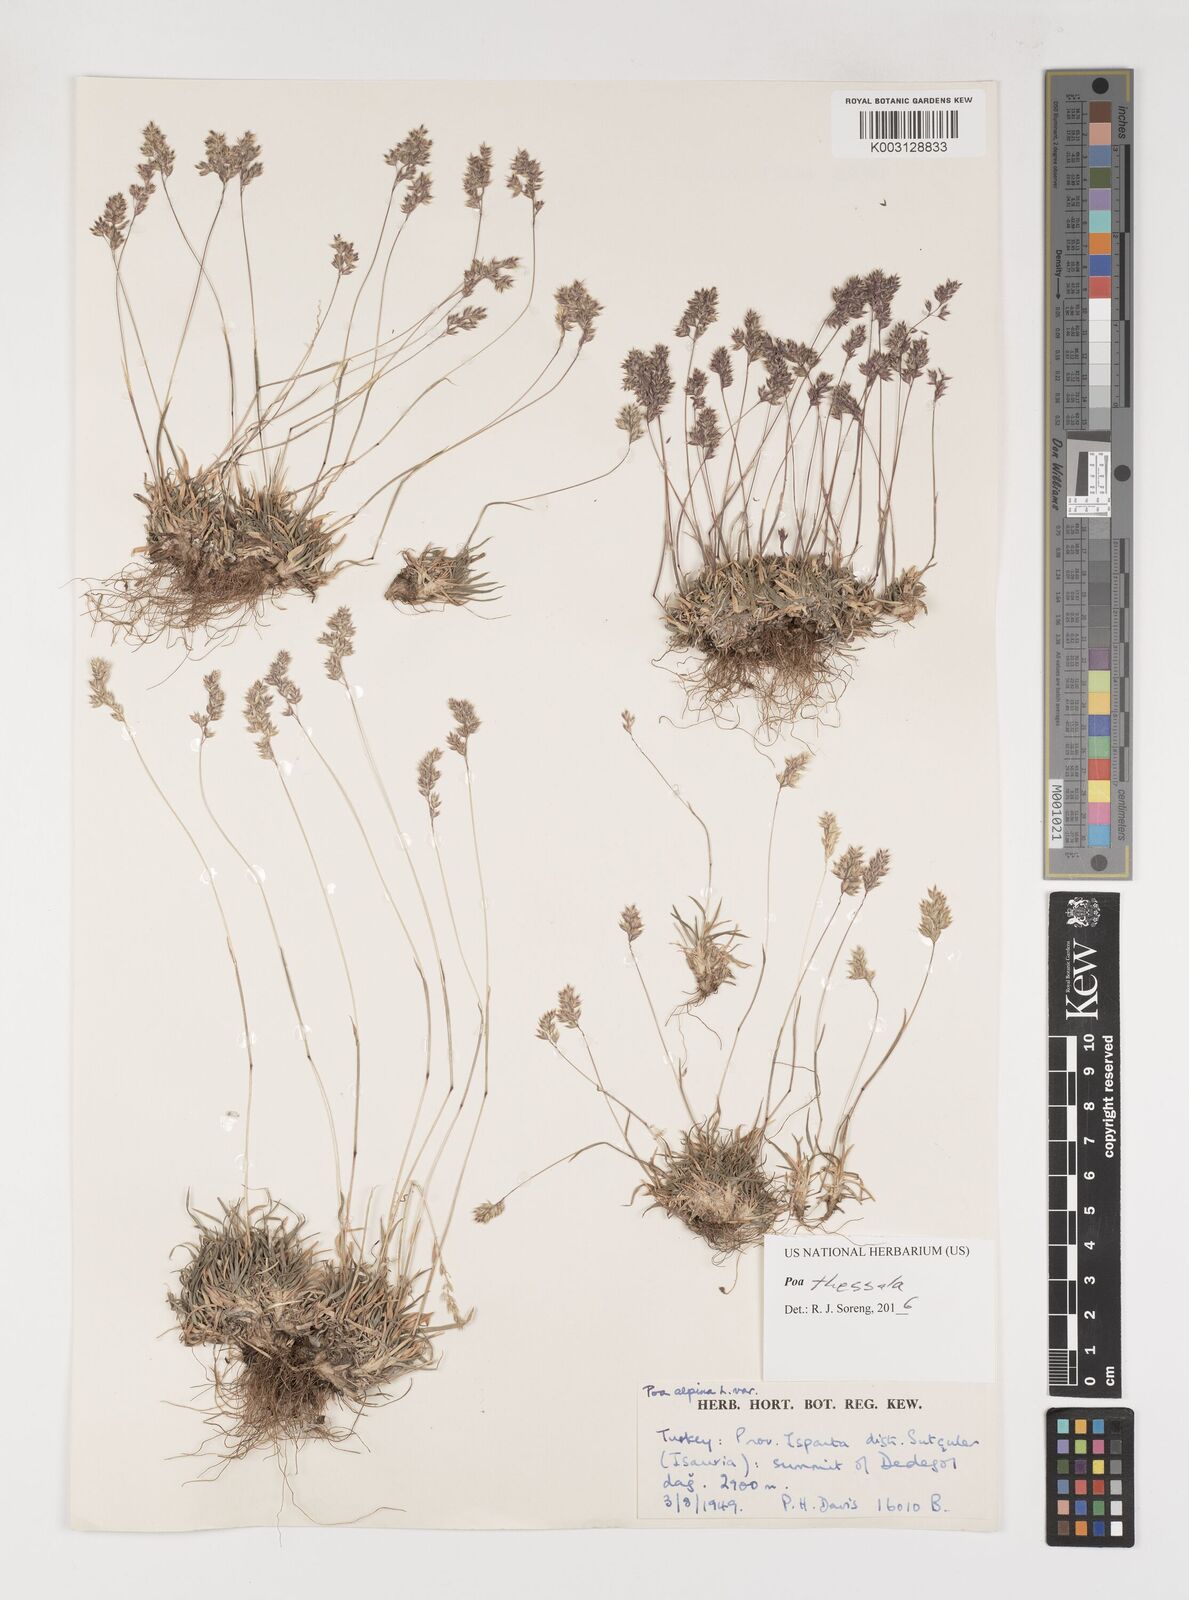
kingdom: Plantae
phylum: Tracheophyta
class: Liliopsida
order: Poales
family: Poaceae
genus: Poa
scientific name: Poa thessala
